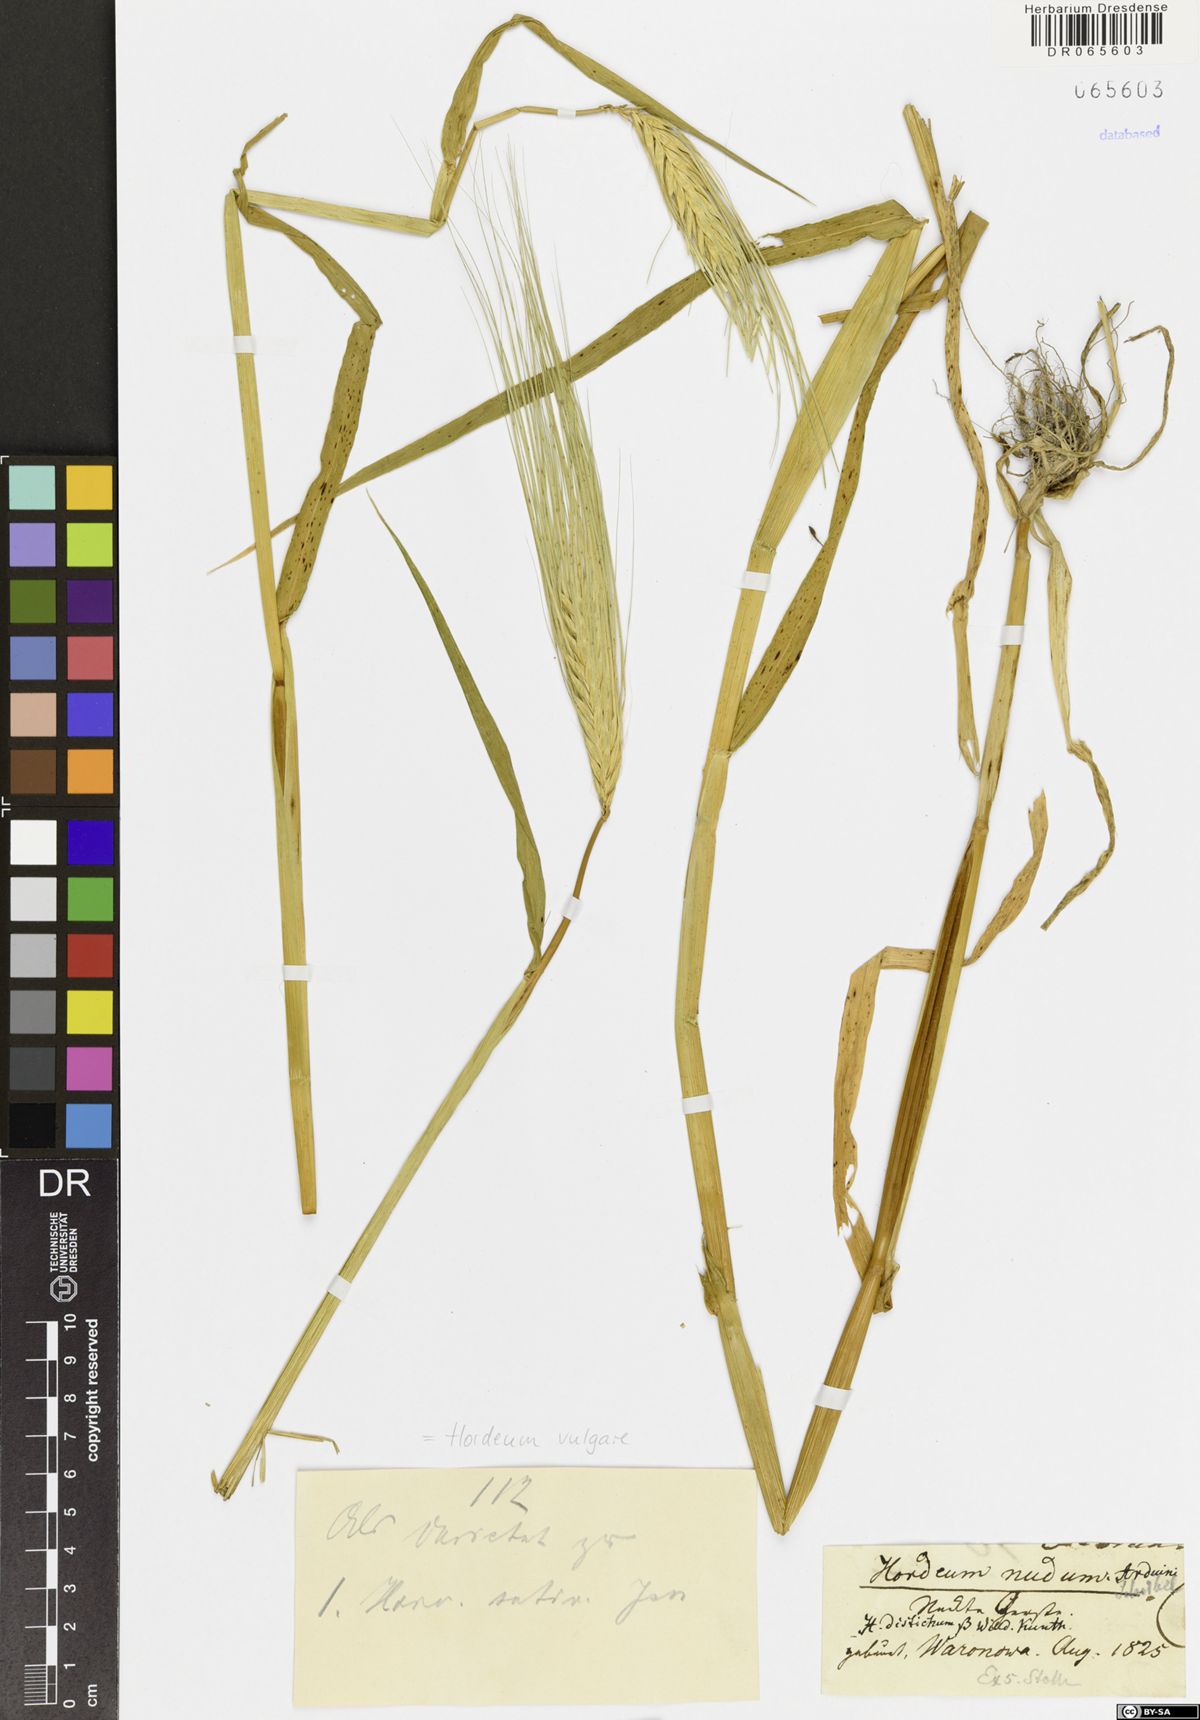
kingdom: Plantae
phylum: Tracheophyta
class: Liliopsida
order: Poales
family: Poaceae
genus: Hordeum
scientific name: Hordeum vulgare
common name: Common barley
